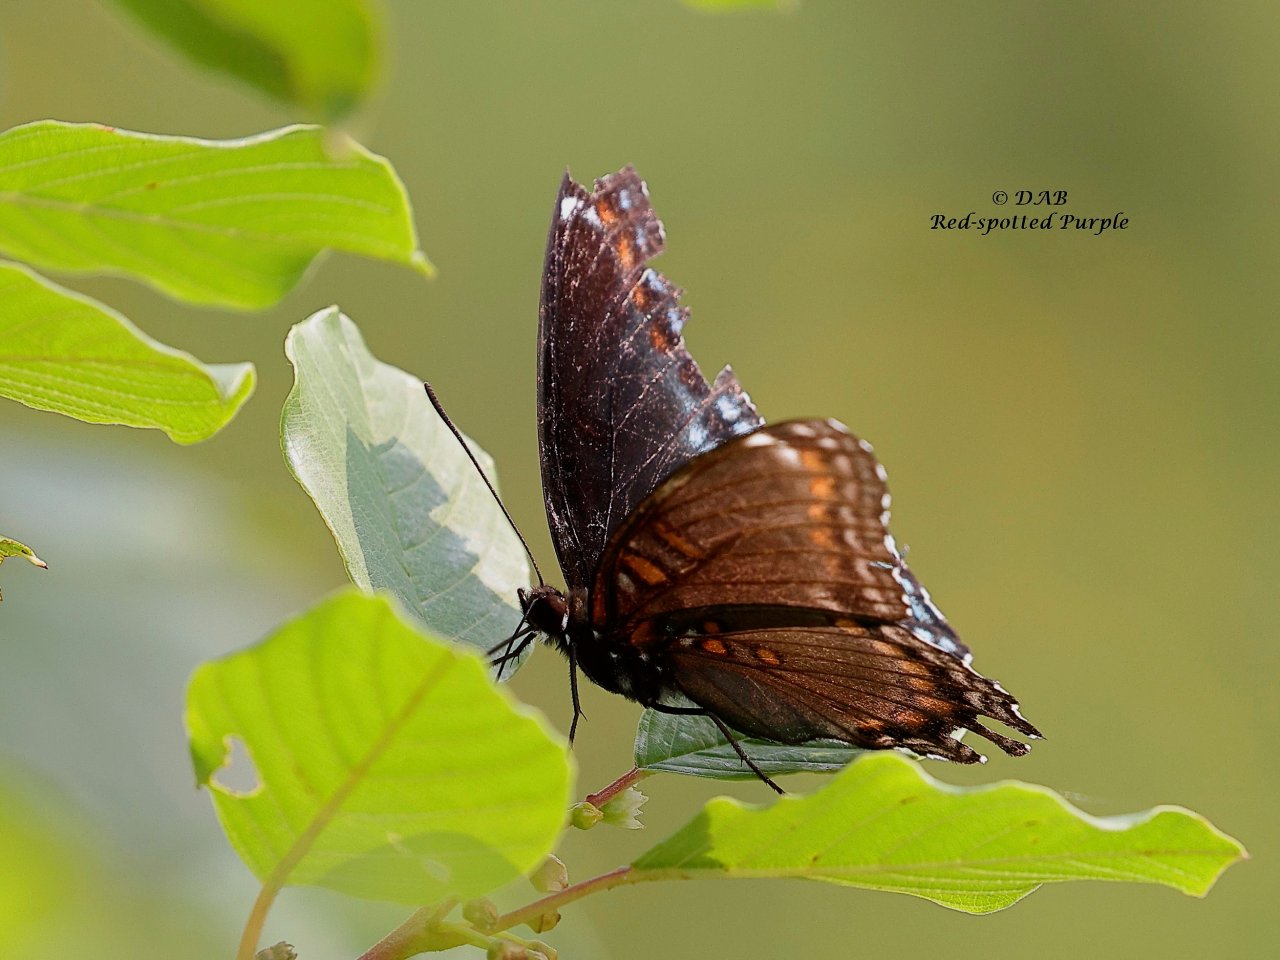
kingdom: Animalia
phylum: Arthropoda
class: Insecta
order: Lepidoptera
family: Nymphalidae
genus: Limenitis
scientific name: Limenitis arthemis
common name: Red-spotted Admiral
